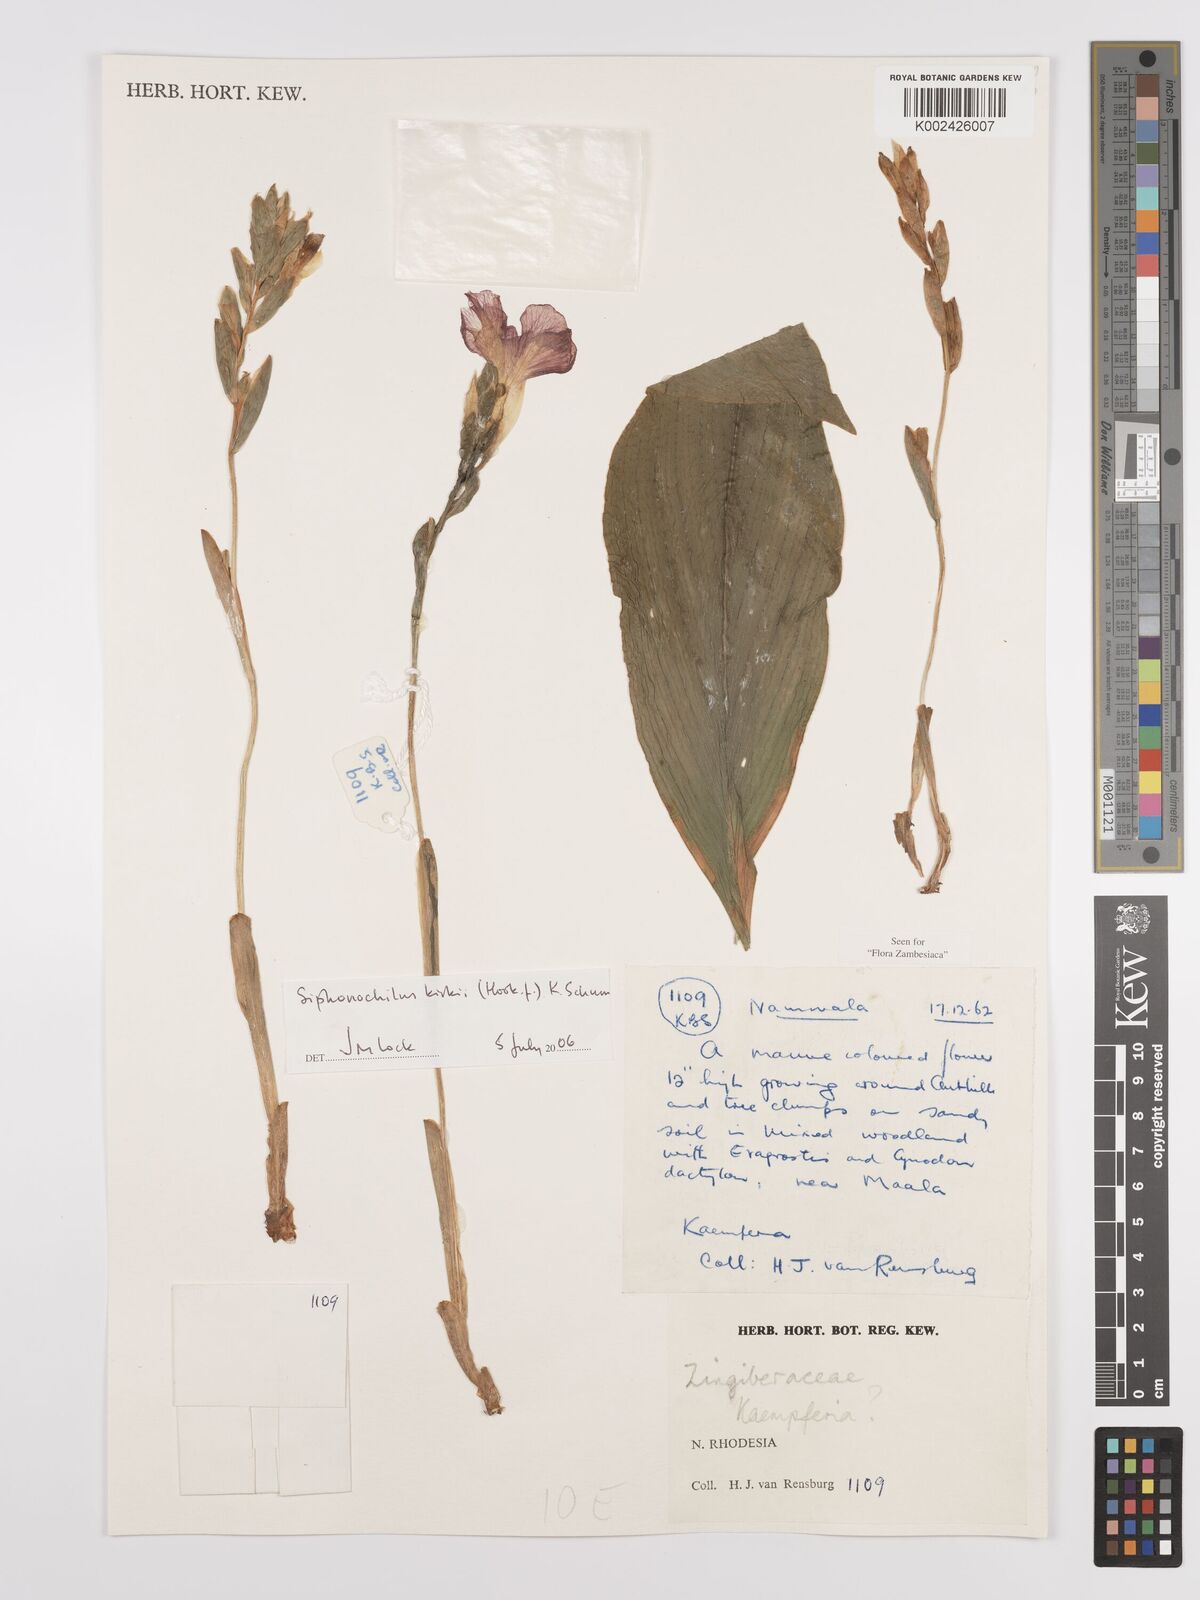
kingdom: Plantae
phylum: Tracheophyta
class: Liliopsida
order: Zingiberales
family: Zingiberaceae
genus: Siphonochilus
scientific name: Siphonochilus kirkii
